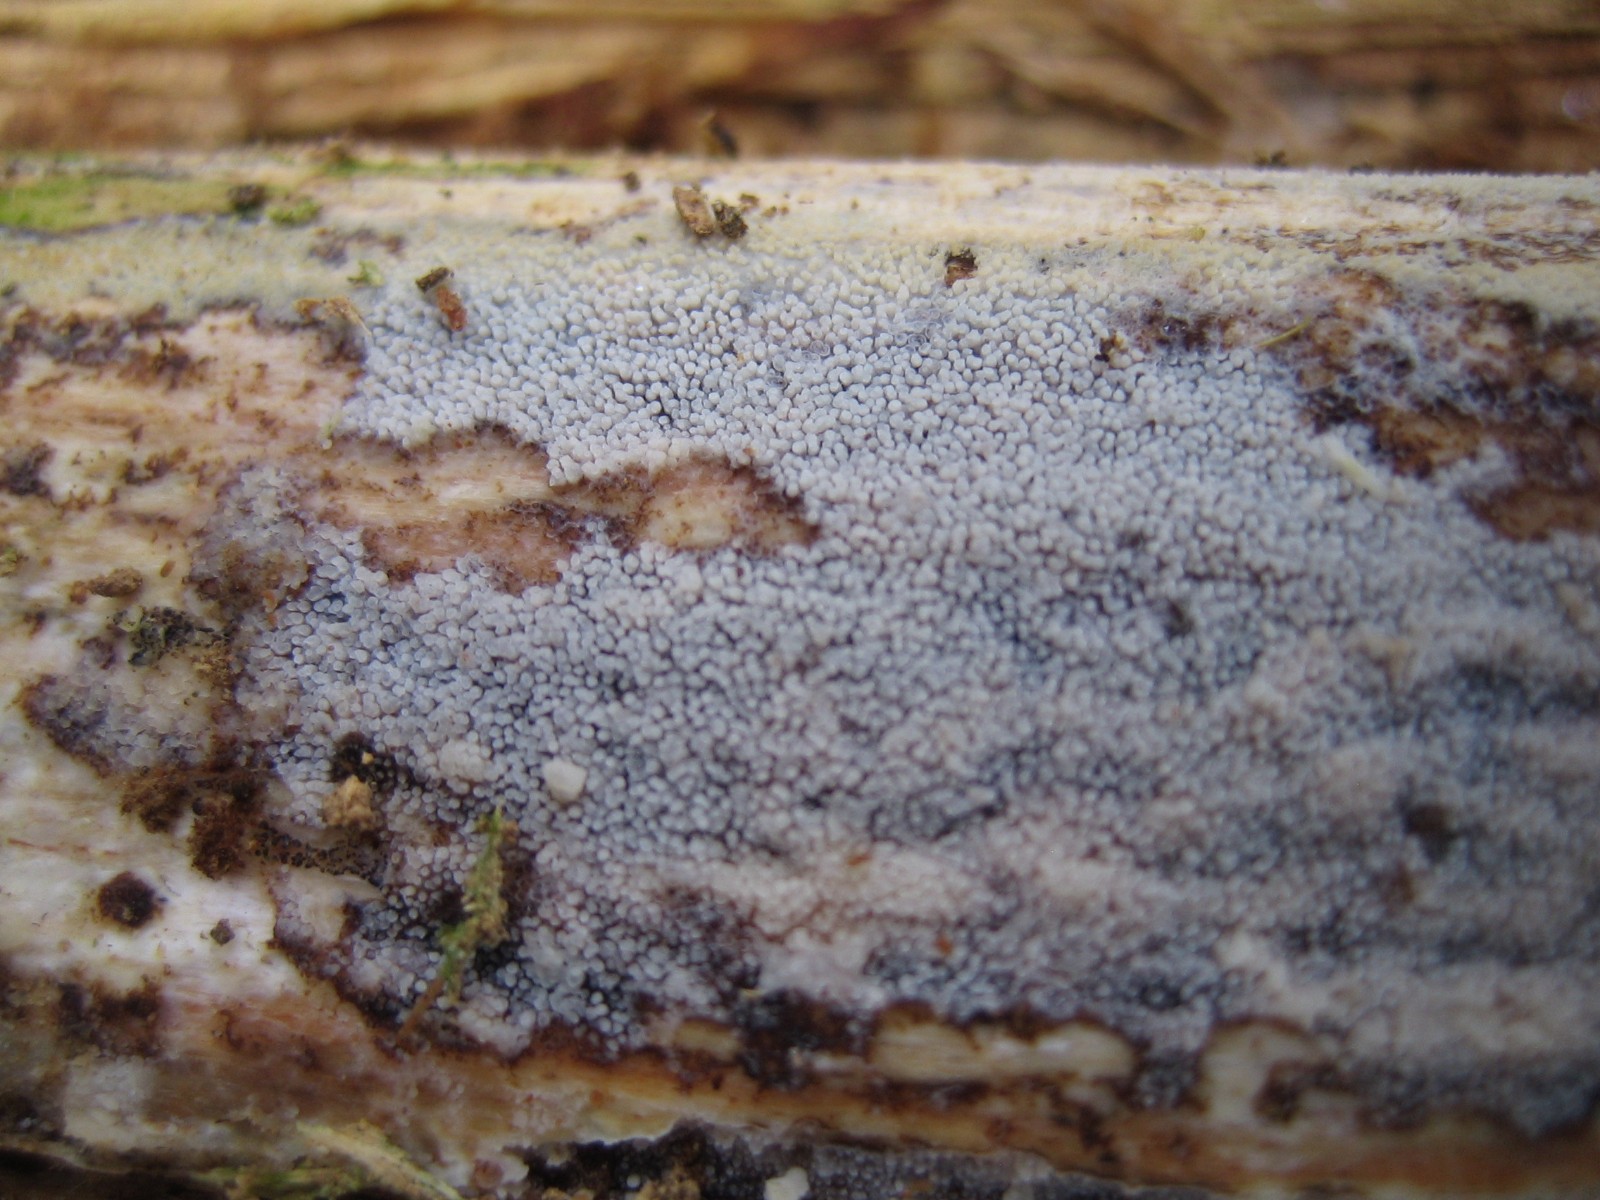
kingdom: Fungi
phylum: Basidiomycota
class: Agaricomycetes
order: Hymenochaetales
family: Rickenellaceae
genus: Resinicium
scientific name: Resinicium bicolor
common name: almindelig vokstand
